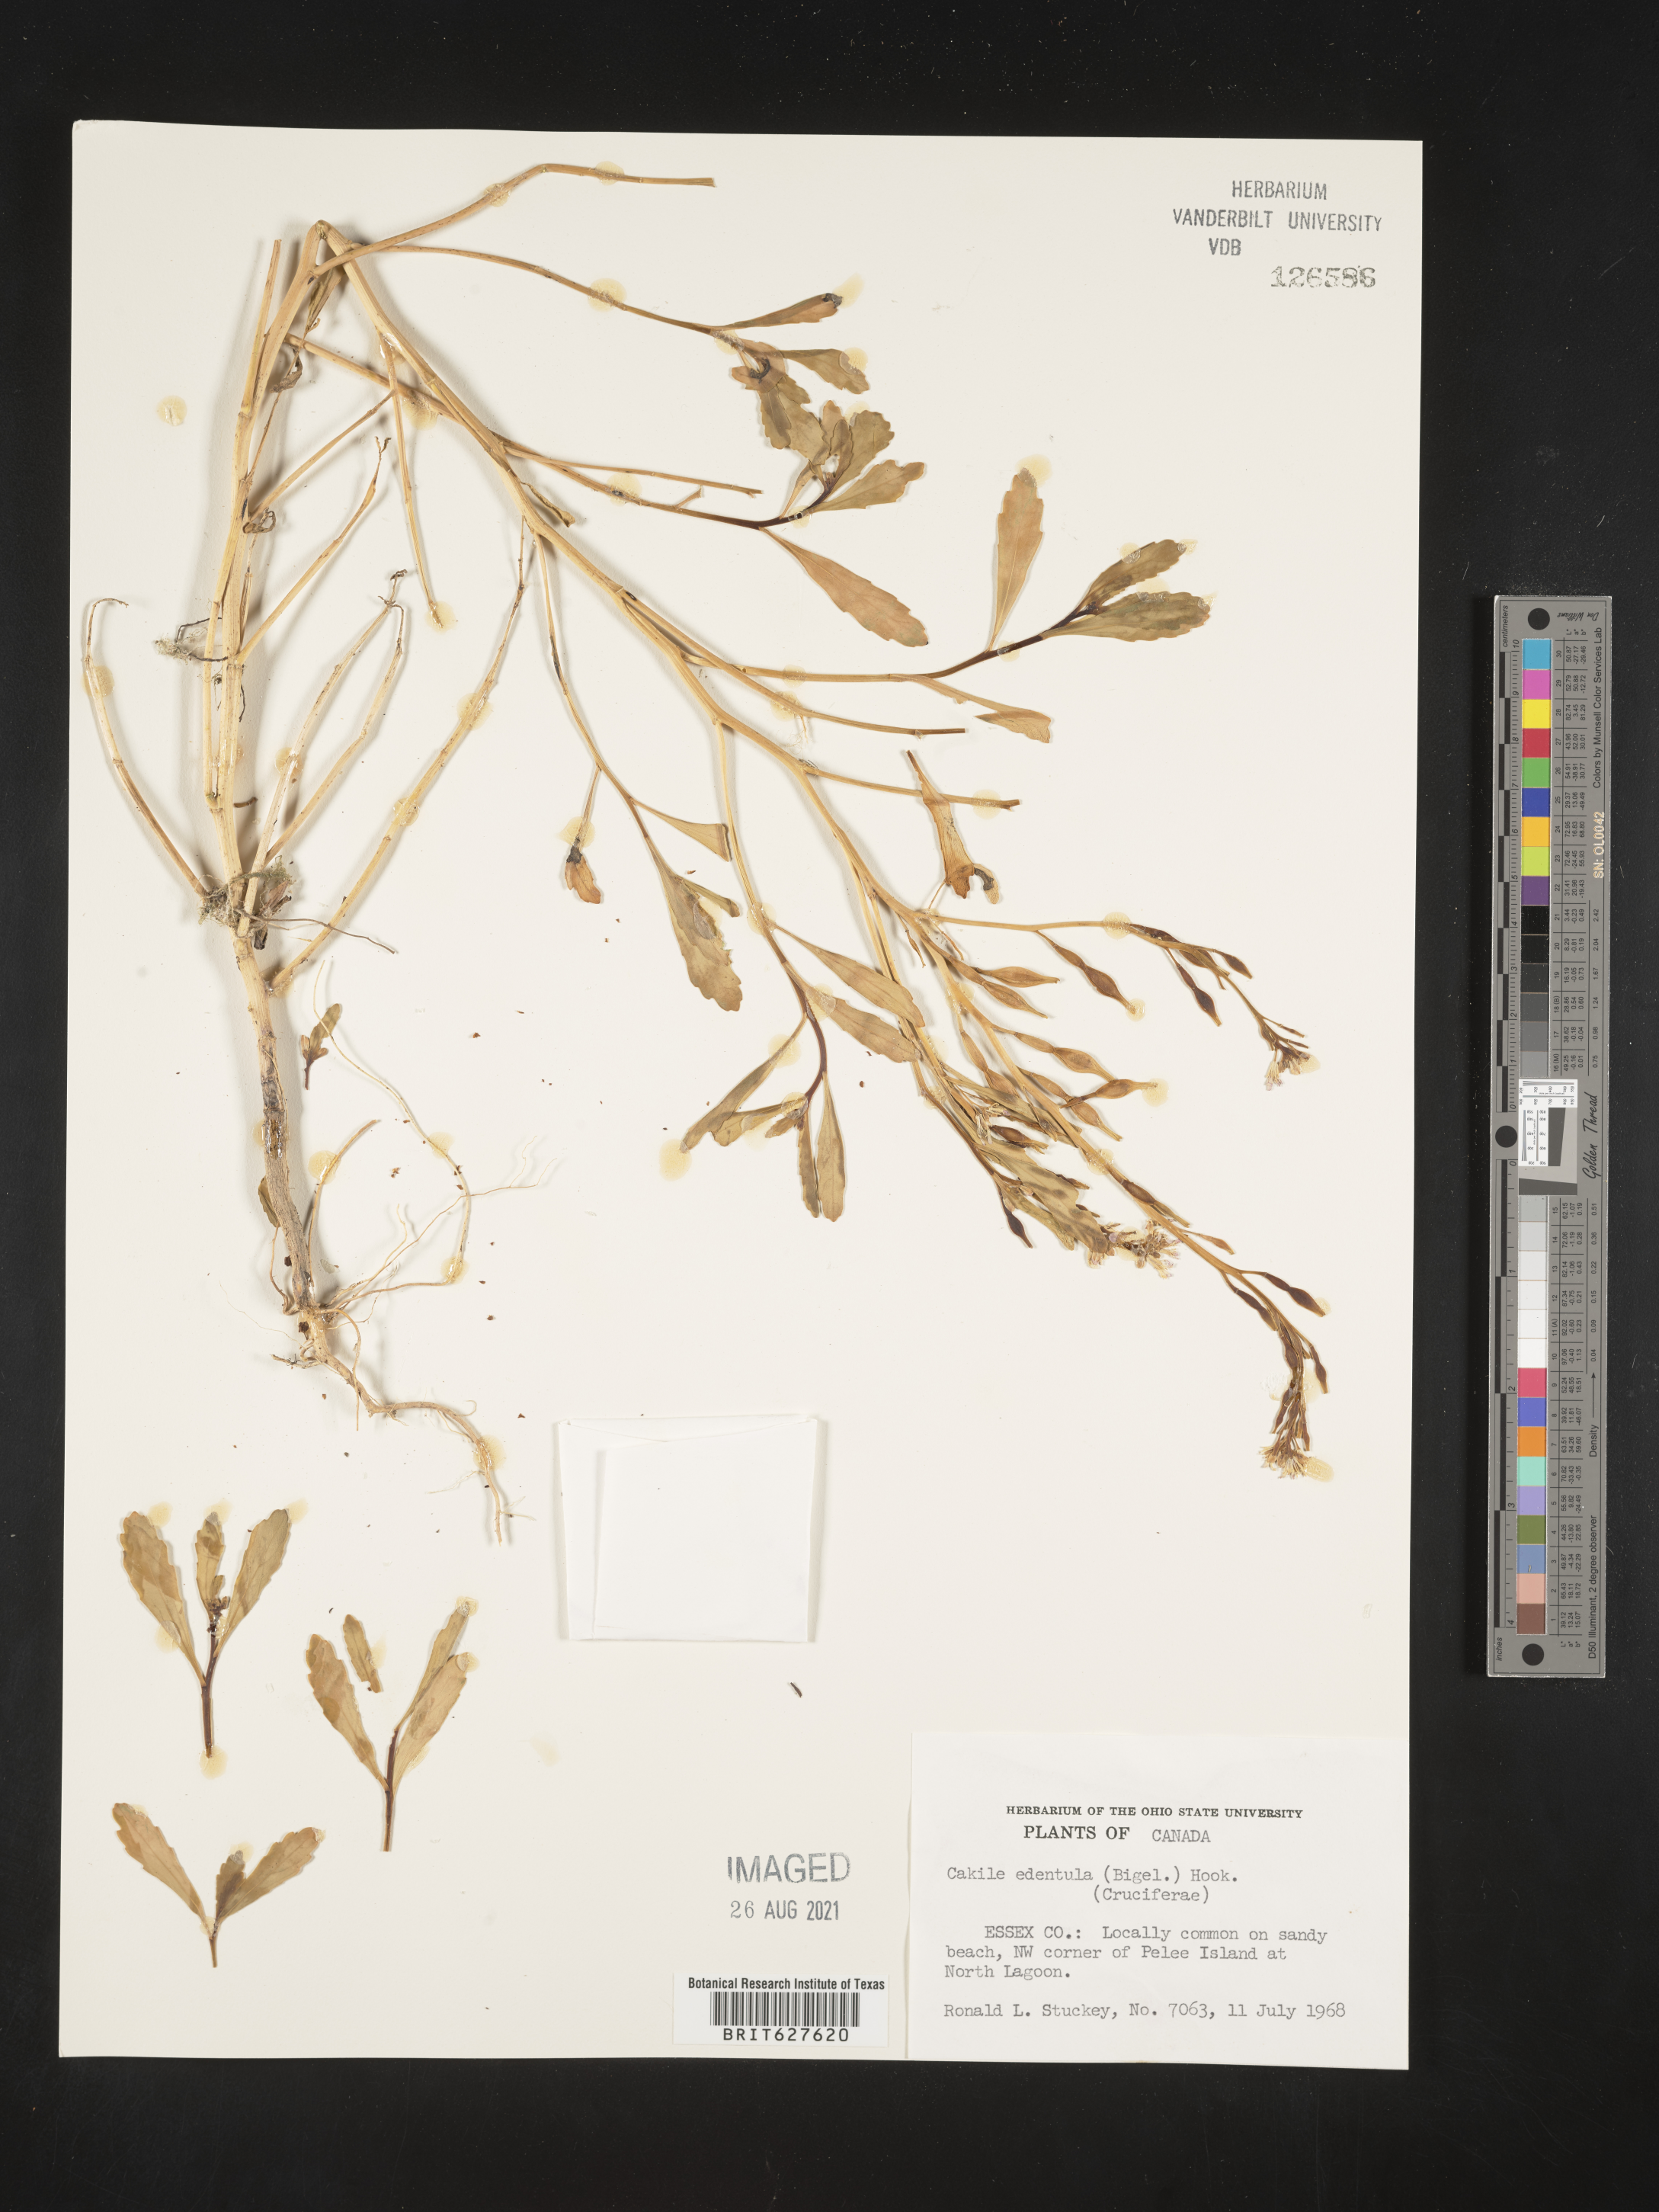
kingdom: Plantae
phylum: Tracheophyta
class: Magnoliopsida
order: Brassicales
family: Brassicaceae
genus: Cakile
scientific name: Cakile edentula
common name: American sea rocket
